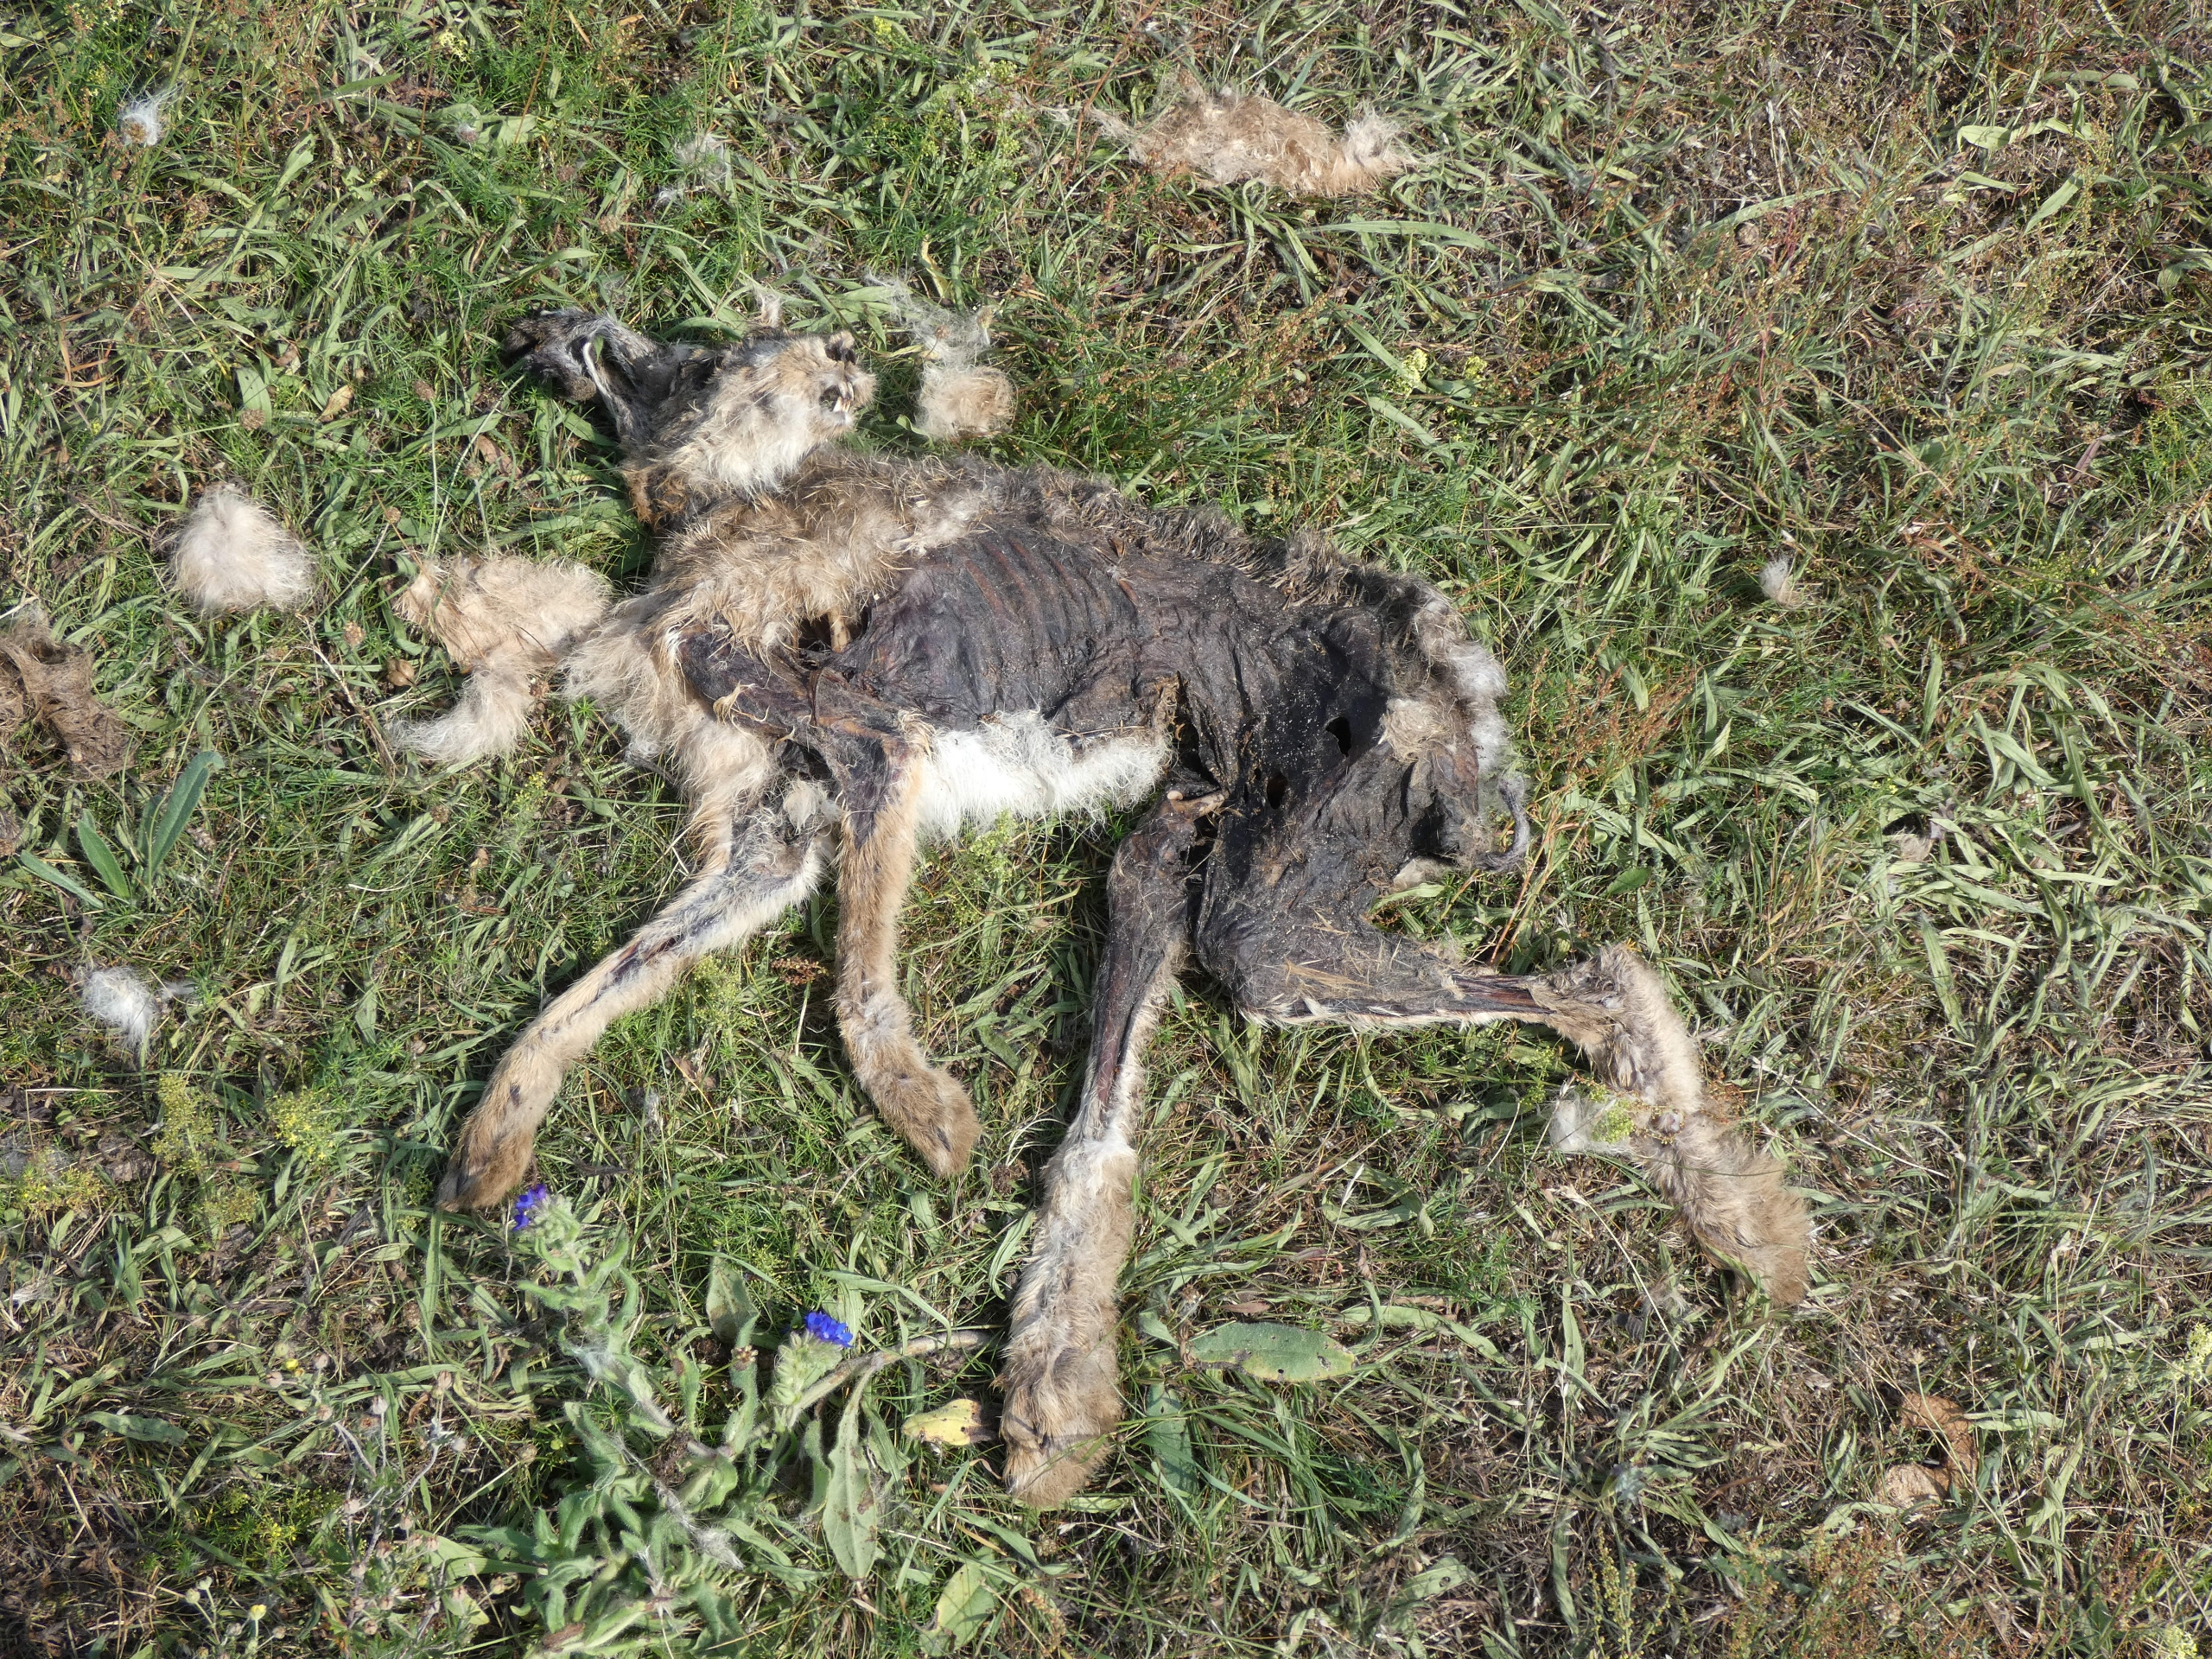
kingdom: Animalia
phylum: Chordata
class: Mammalia
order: Lagomorpha
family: Leporidae
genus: Lepus
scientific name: Lepus europaeus
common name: Hare
